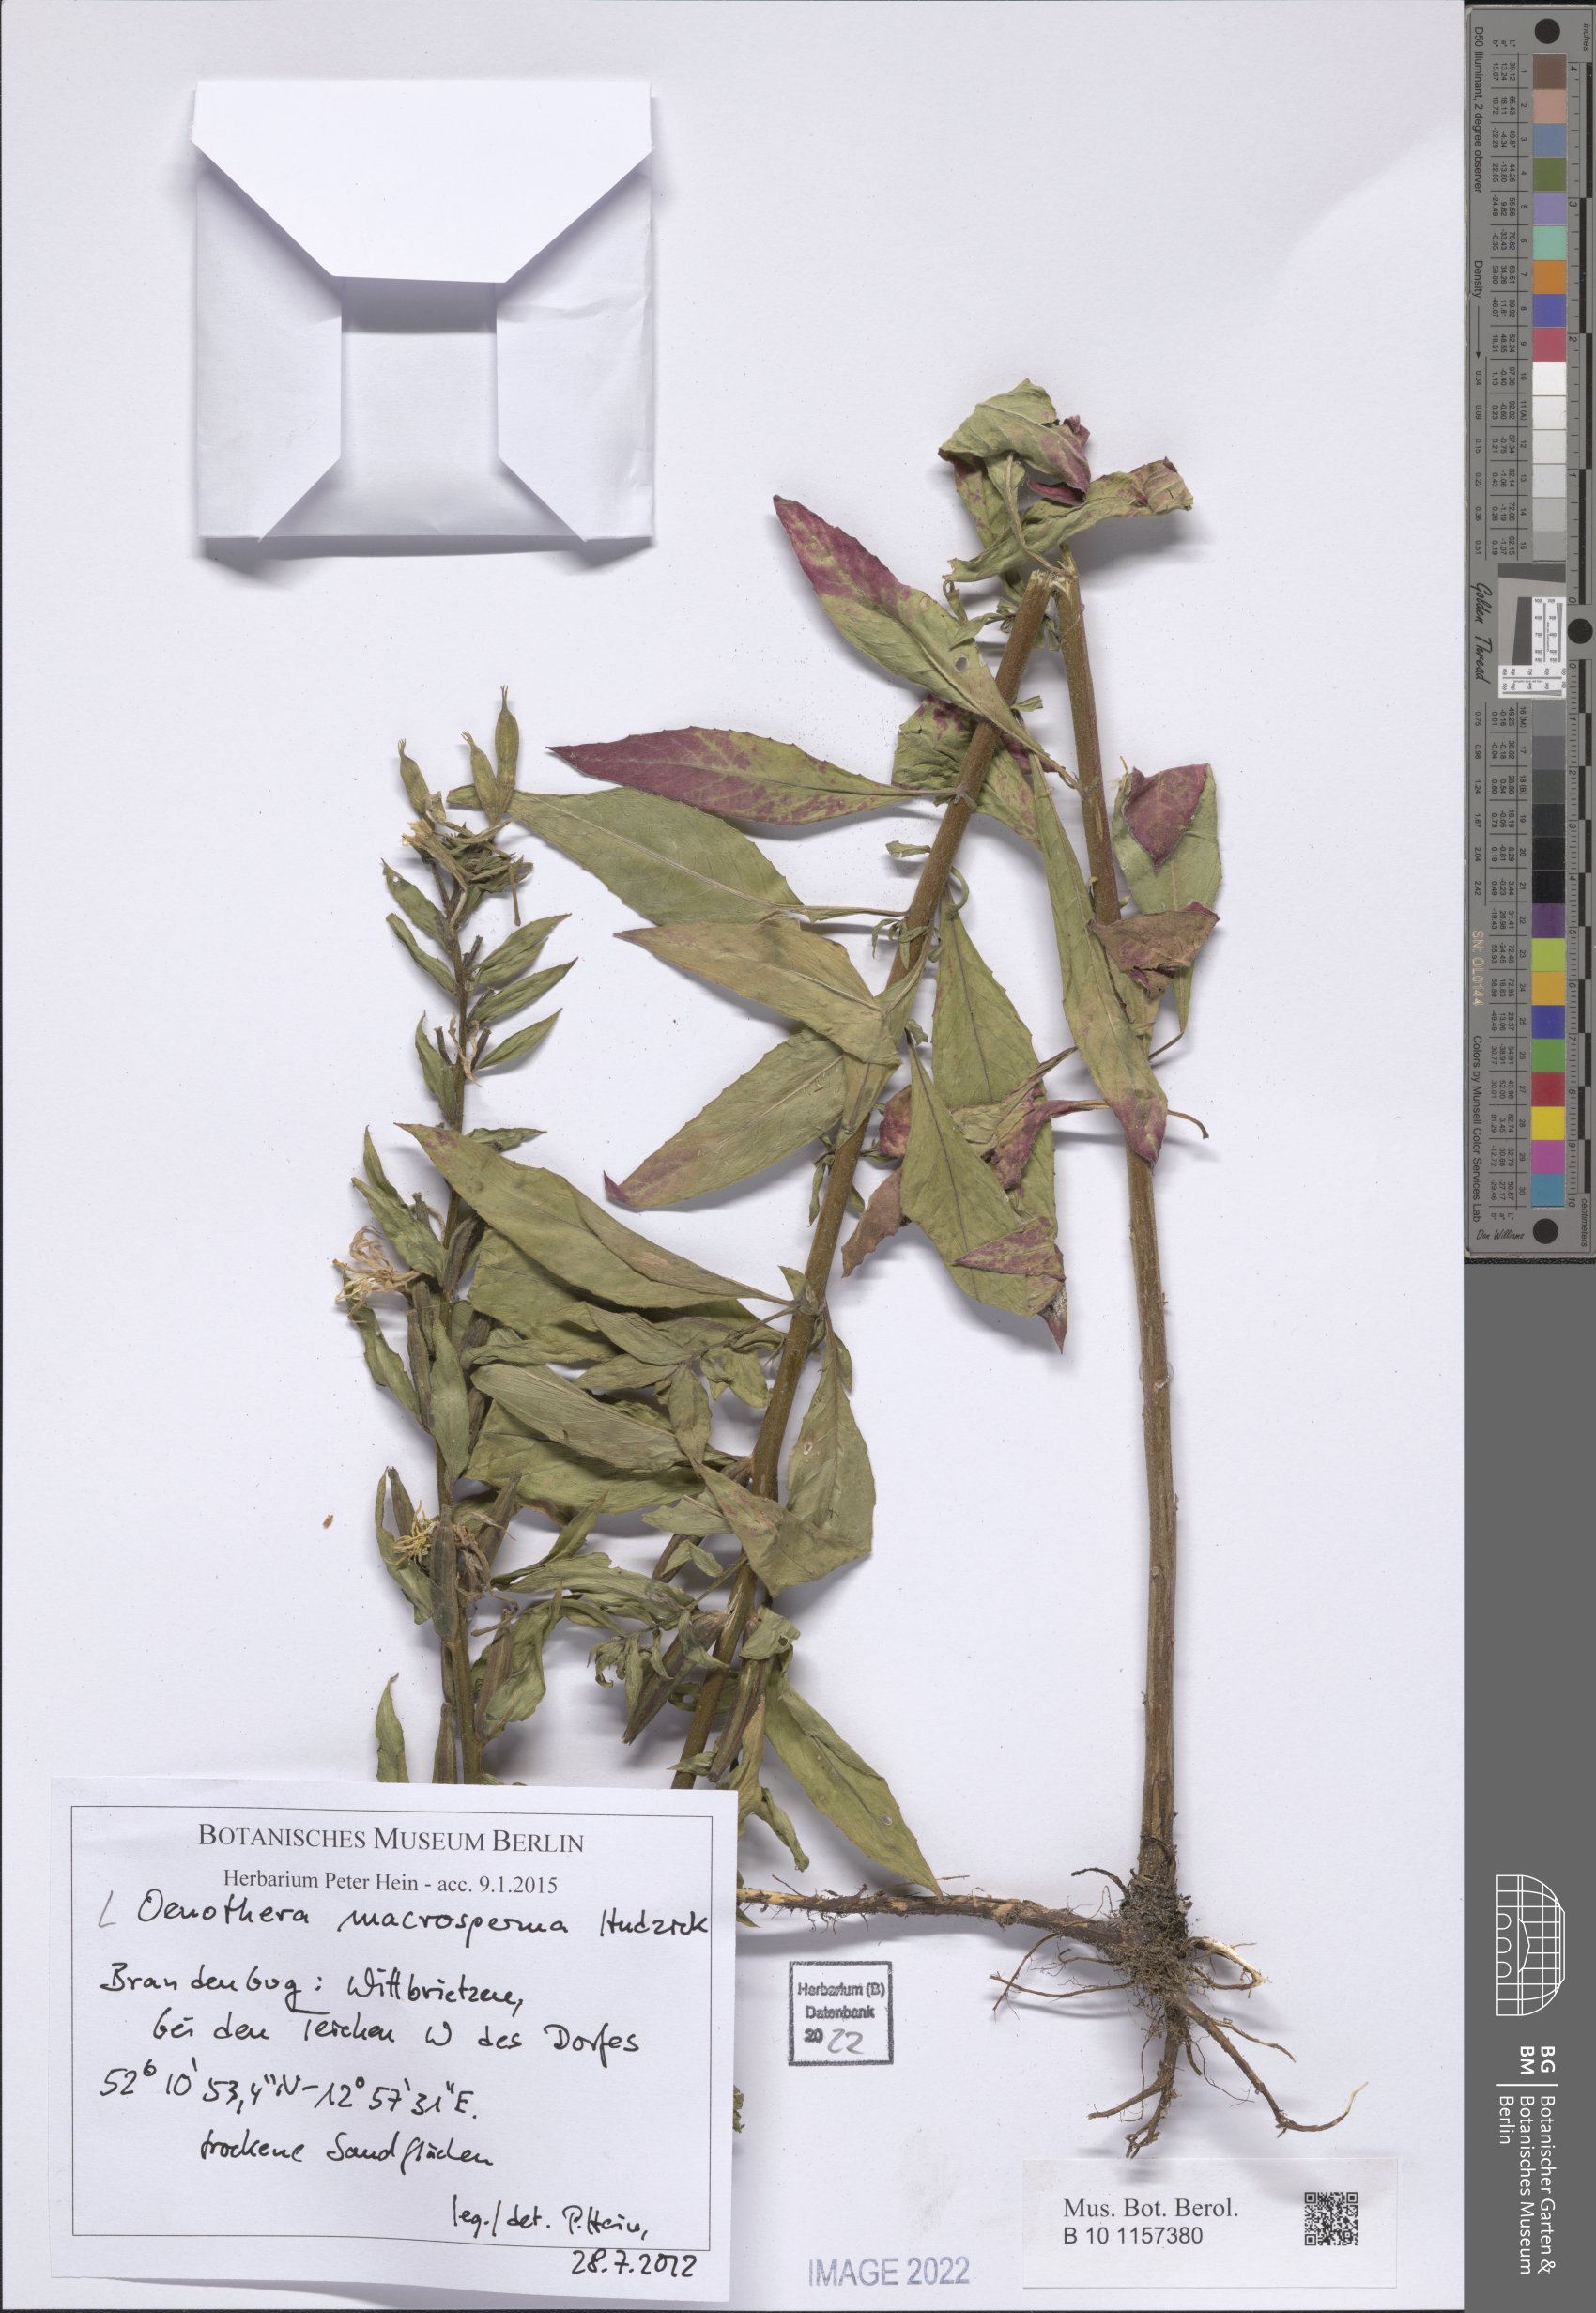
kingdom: Plantae
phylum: Tracheophyta
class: Magnoliopsida
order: Myrtales
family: Onagraceae
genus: Oenothera
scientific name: Oenothera macrosperma
